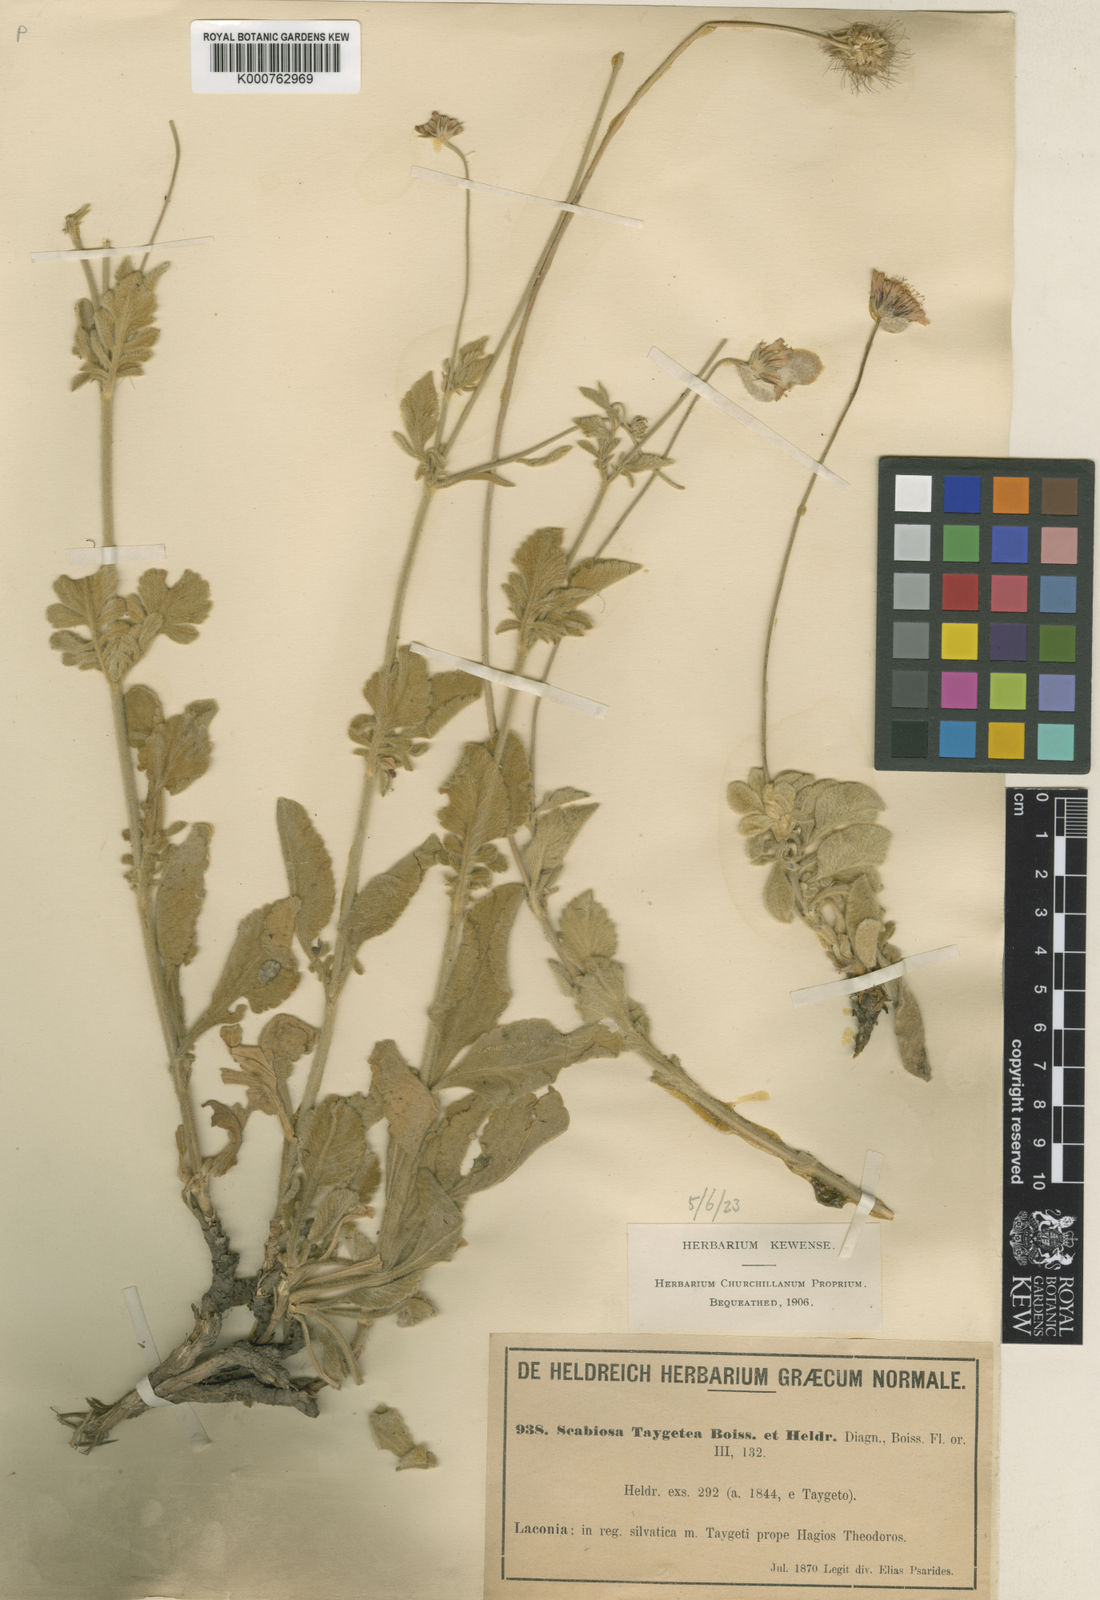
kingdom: Plantae
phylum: Tracheophyta
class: Magnoliopsida
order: Dipsacales
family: Caprifoliaceae
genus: Scabiosa
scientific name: Scabiosa taygetea
